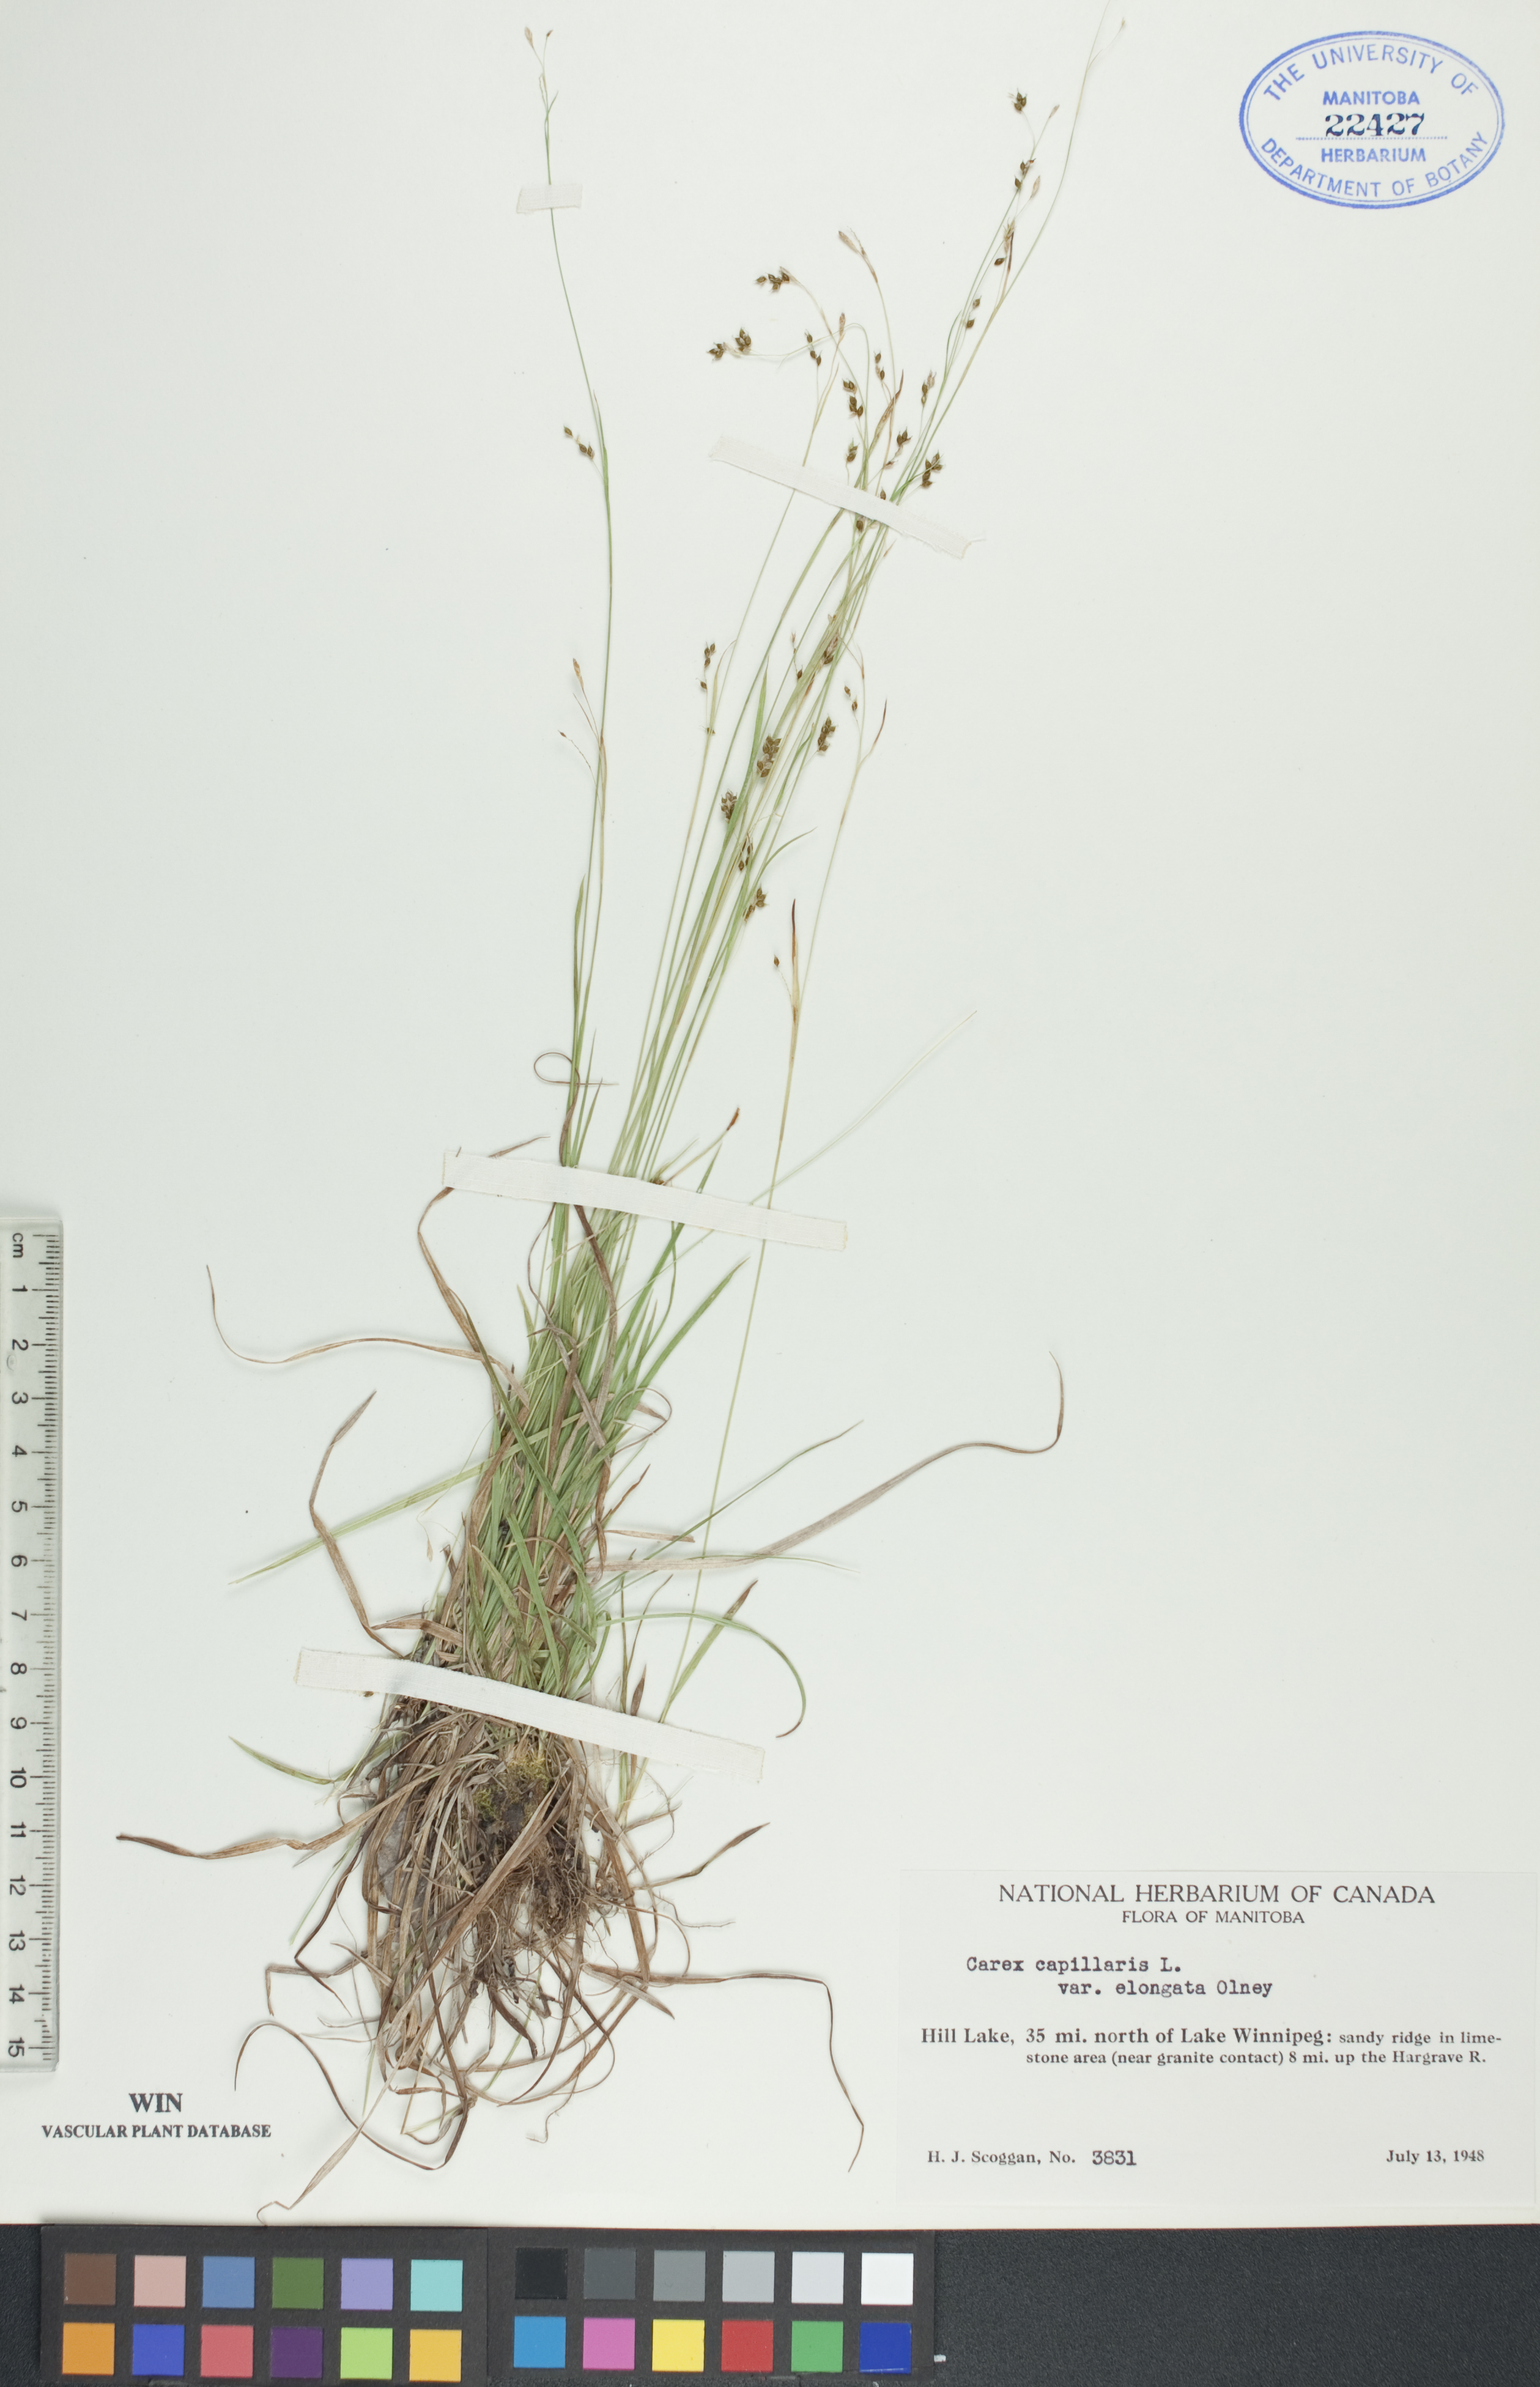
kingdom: Plantae
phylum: Tracheophyta
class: Liliopsida
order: Poales
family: Cyperaceae
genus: Carex
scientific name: Carex capillaris
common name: Hair sedge
